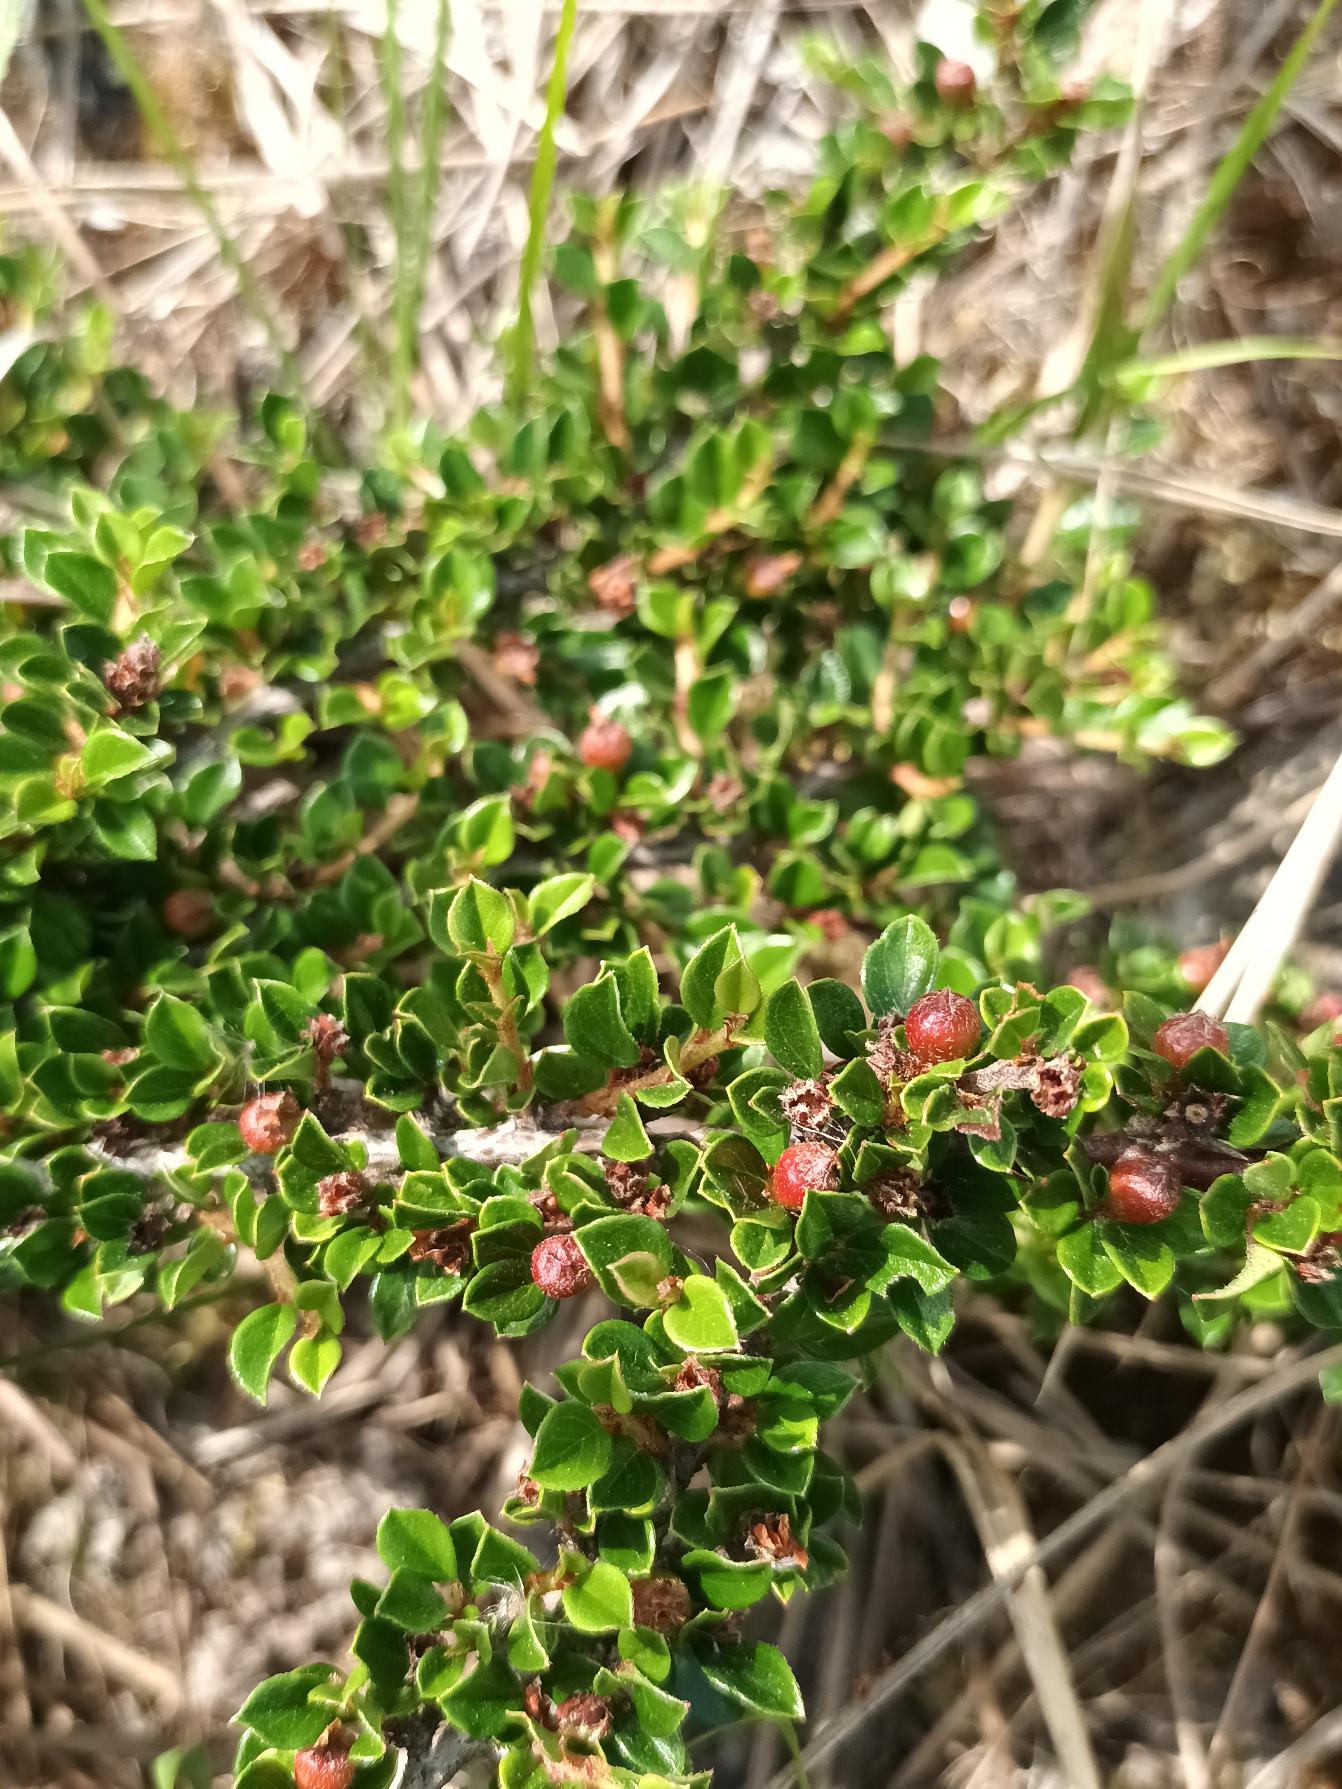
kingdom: Plantae
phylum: Tracheophyta
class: Magnoliopsida
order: Rosales
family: Rosaceae
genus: Cotoneaster
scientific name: Cotoneaster horizontalis
